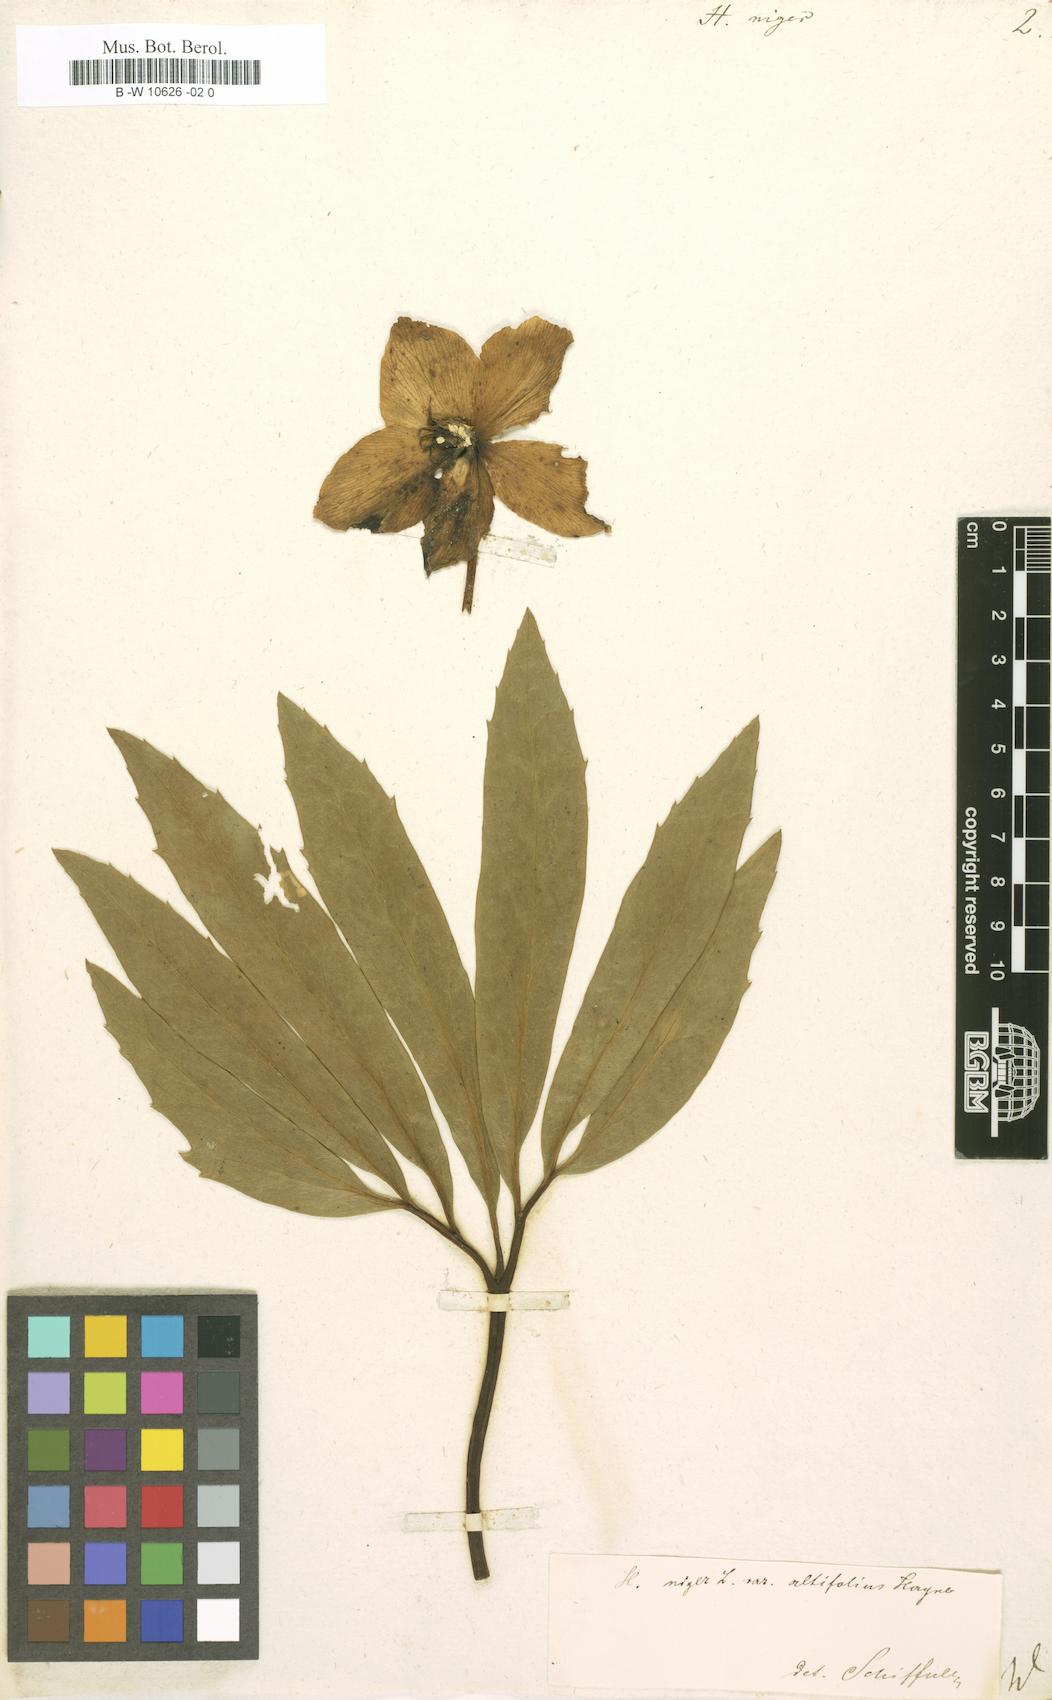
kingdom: Plantae
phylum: Tracheophyta
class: Magnoliopsida
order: Ranunculales
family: Ranunculaceae
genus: Helleborus
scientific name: Helleborus niger
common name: Black hellebore
